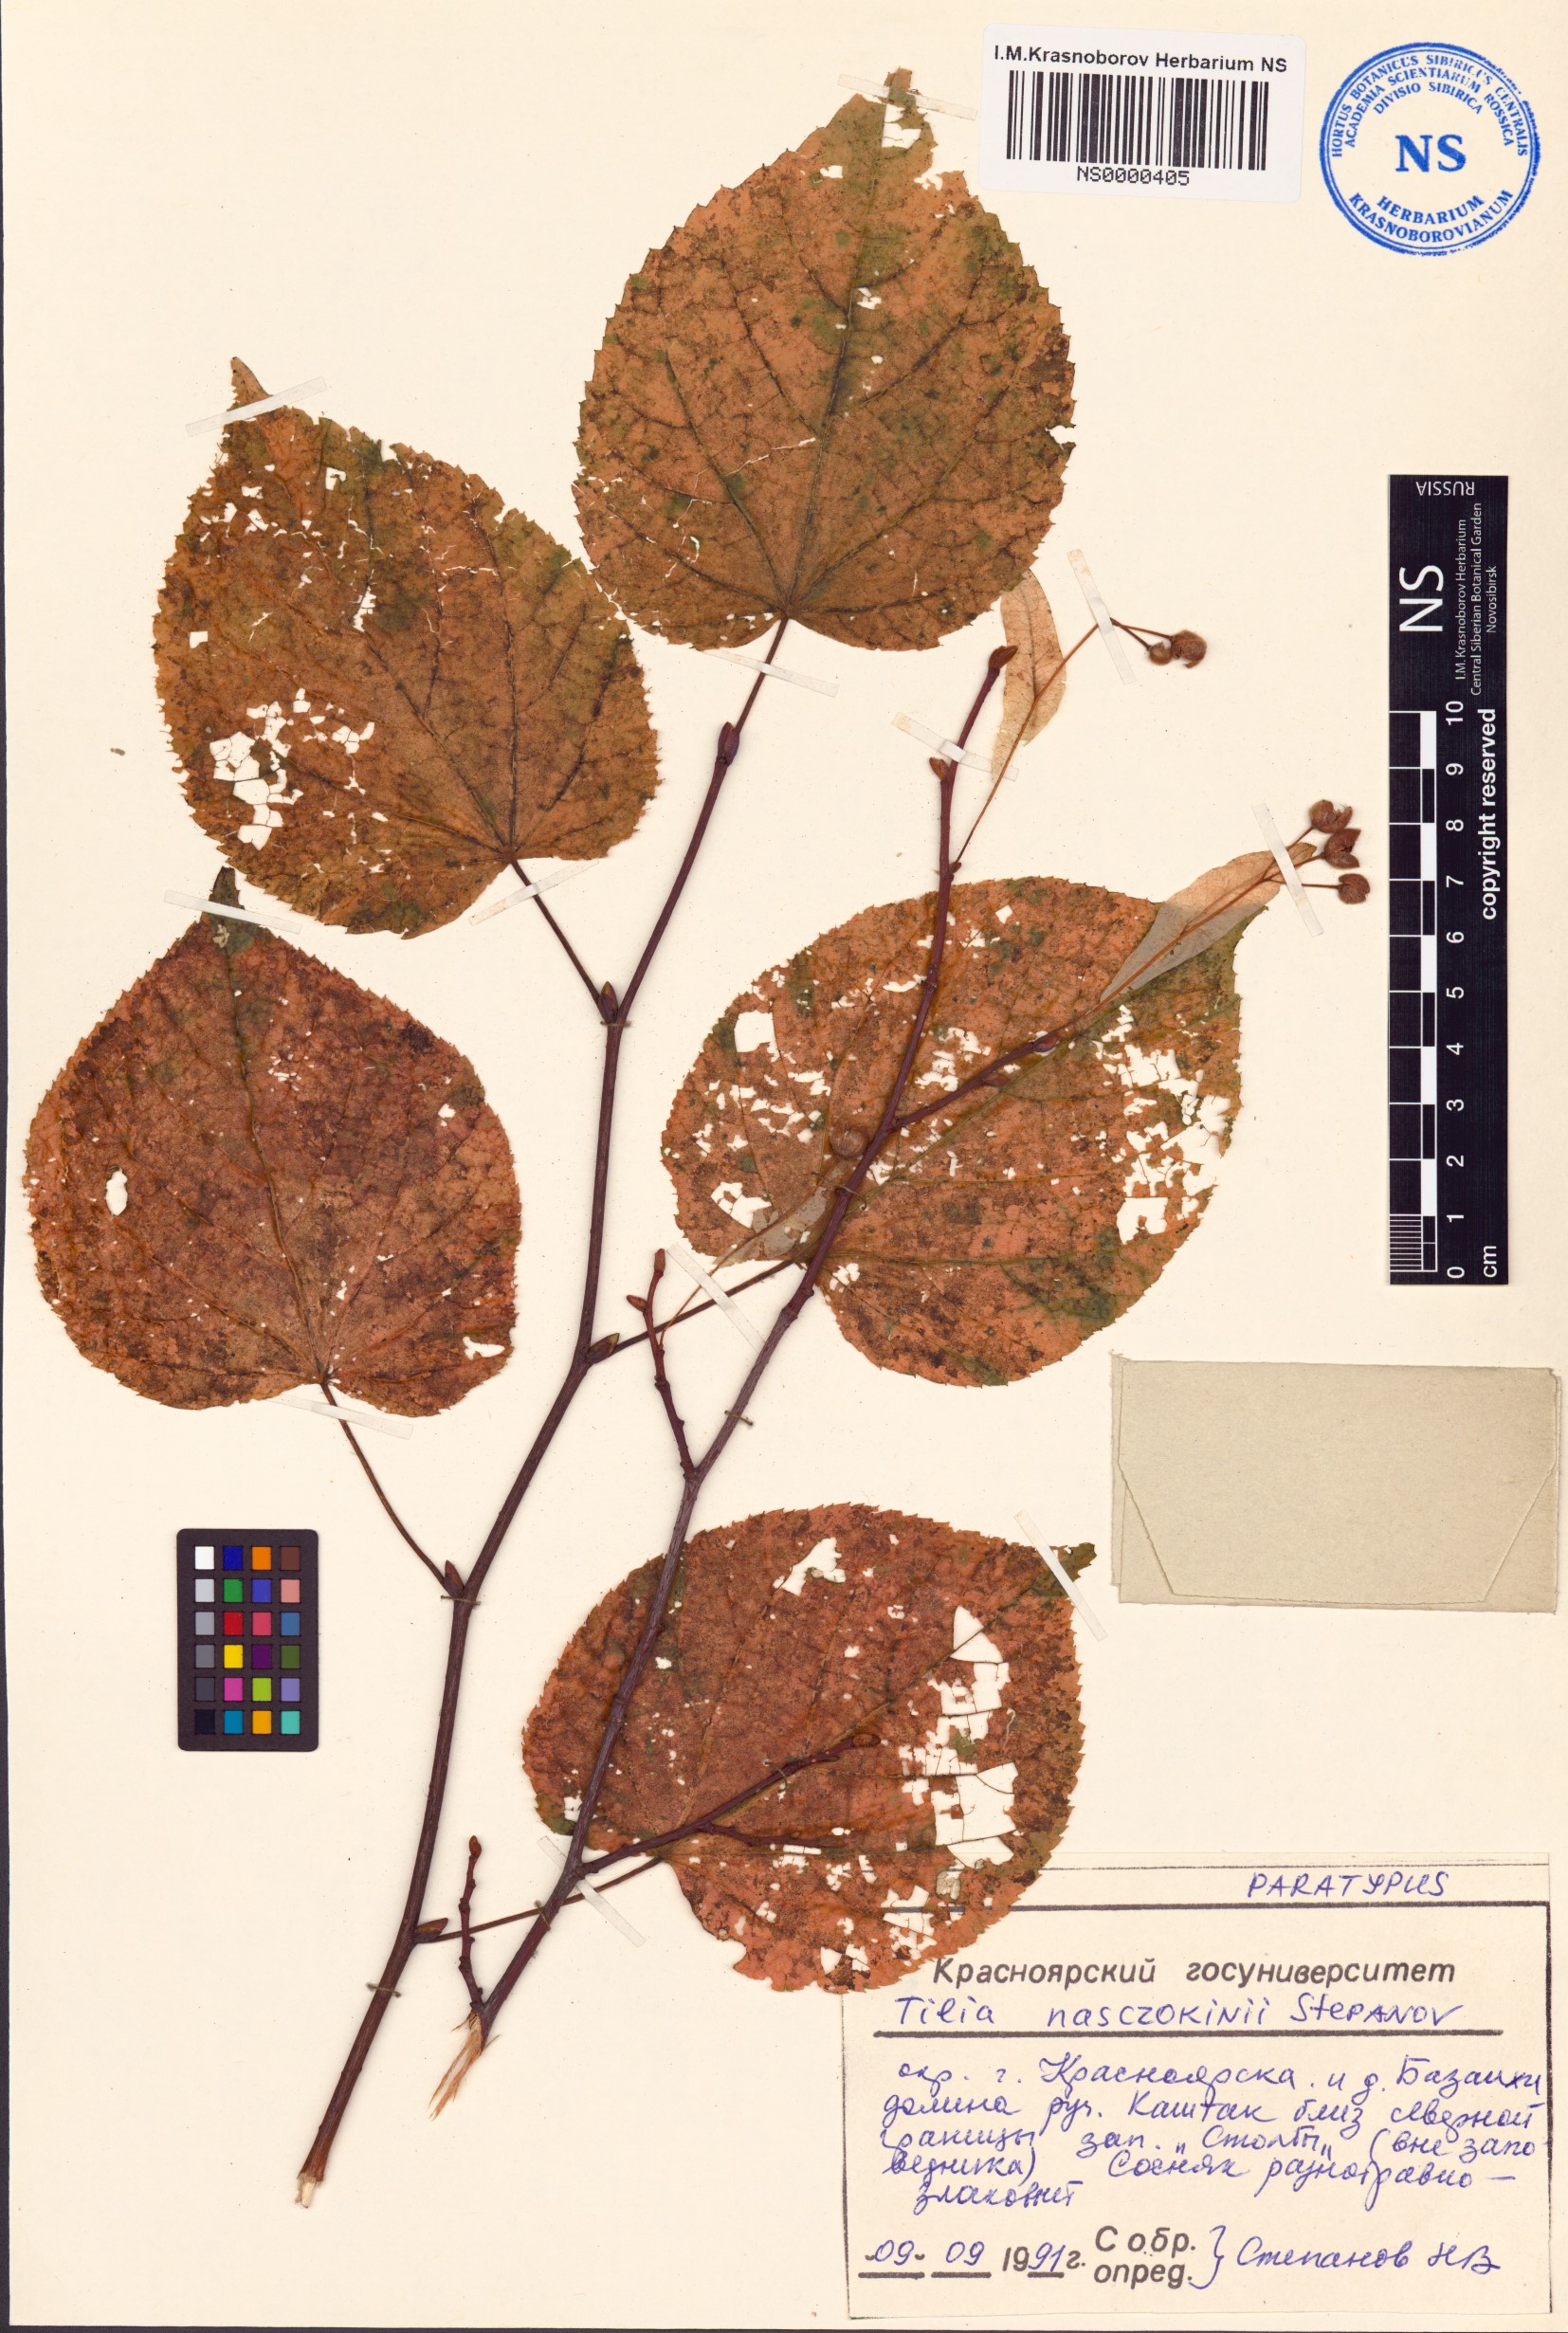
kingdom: Plantae
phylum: Tracheophyta
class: Magnoliopsida
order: Malvales
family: Malvaceae
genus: Tilia
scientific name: Tilia cordata
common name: Small-leaved lime
